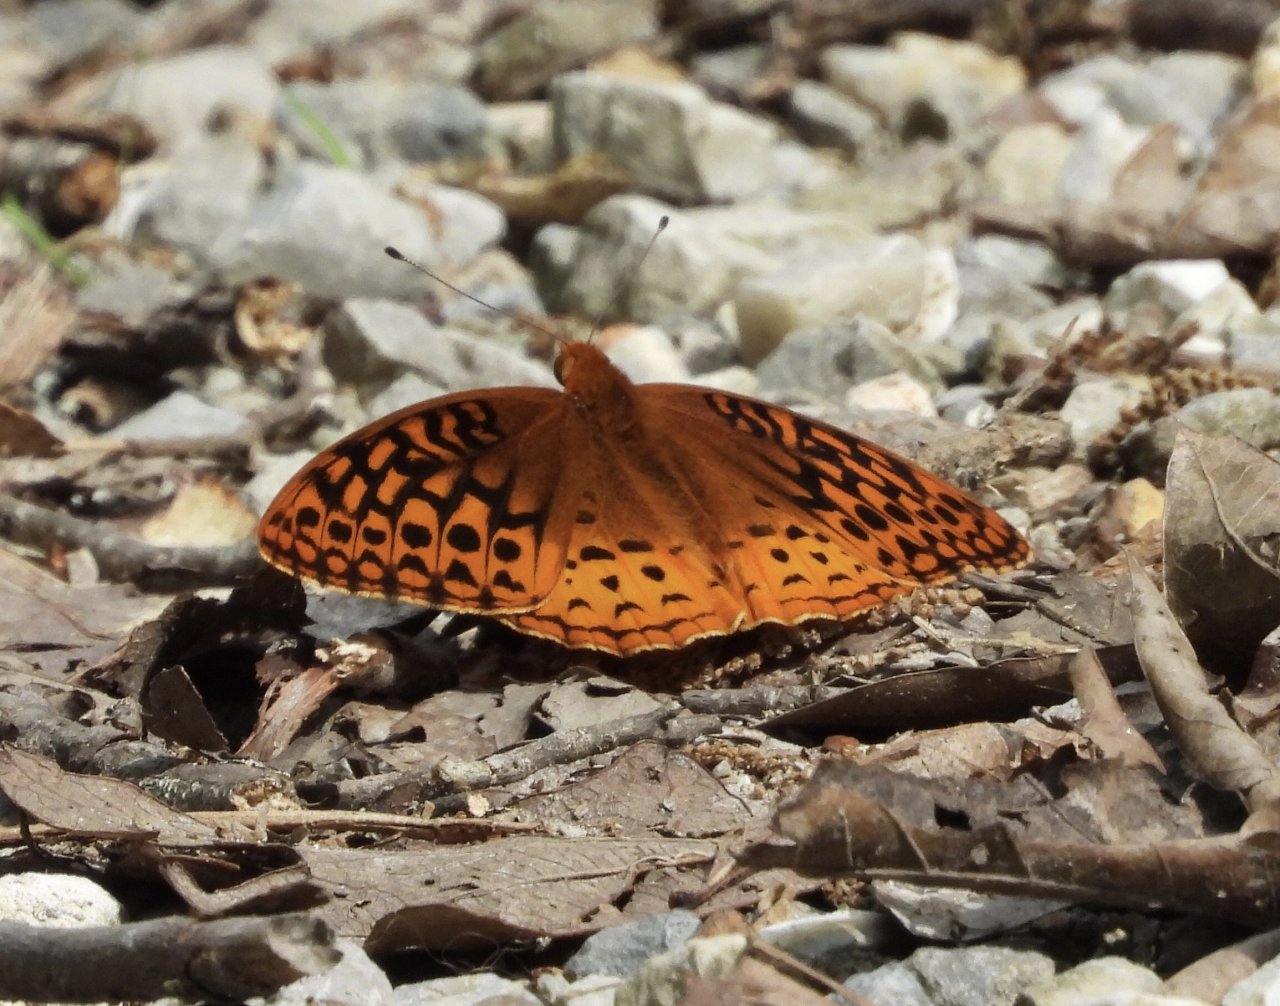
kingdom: Animalia
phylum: Arthropoda
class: Insecta
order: Lepidoptera
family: Nymphalidae
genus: Speyeria
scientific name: Speyeria cybele
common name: Great Spangled Fritillary
